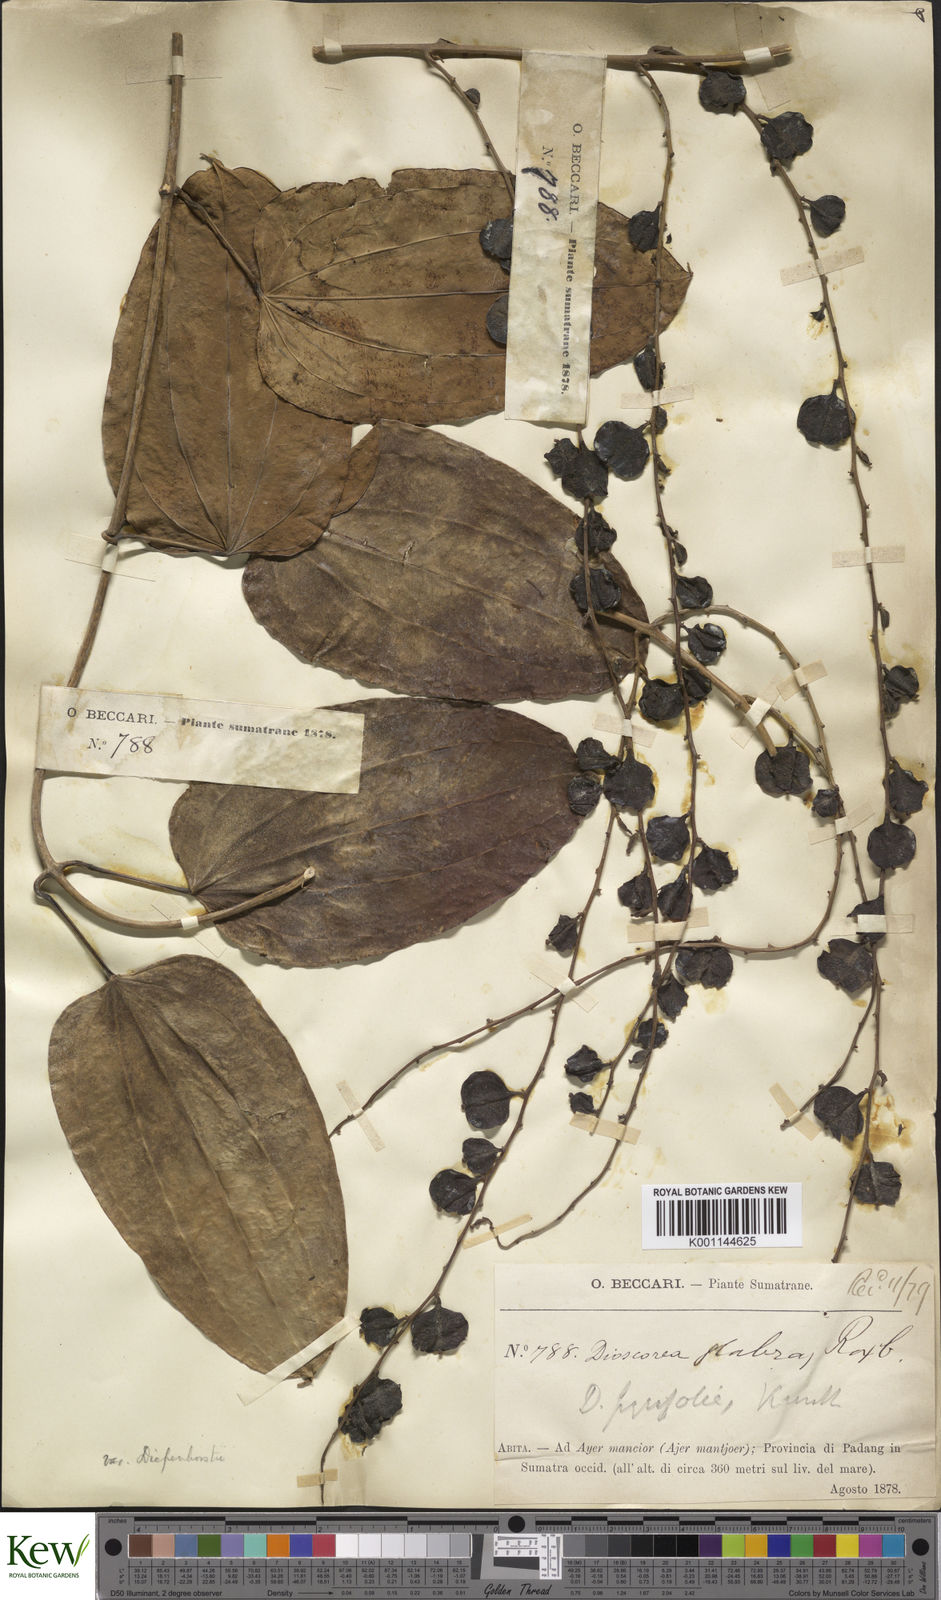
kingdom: Plantae
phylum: Tracheophyta
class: Liliopsida
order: Dioscoreales
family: Dioscoreaceae
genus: Dioscorea
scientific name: Dioscorea pyrifolia
